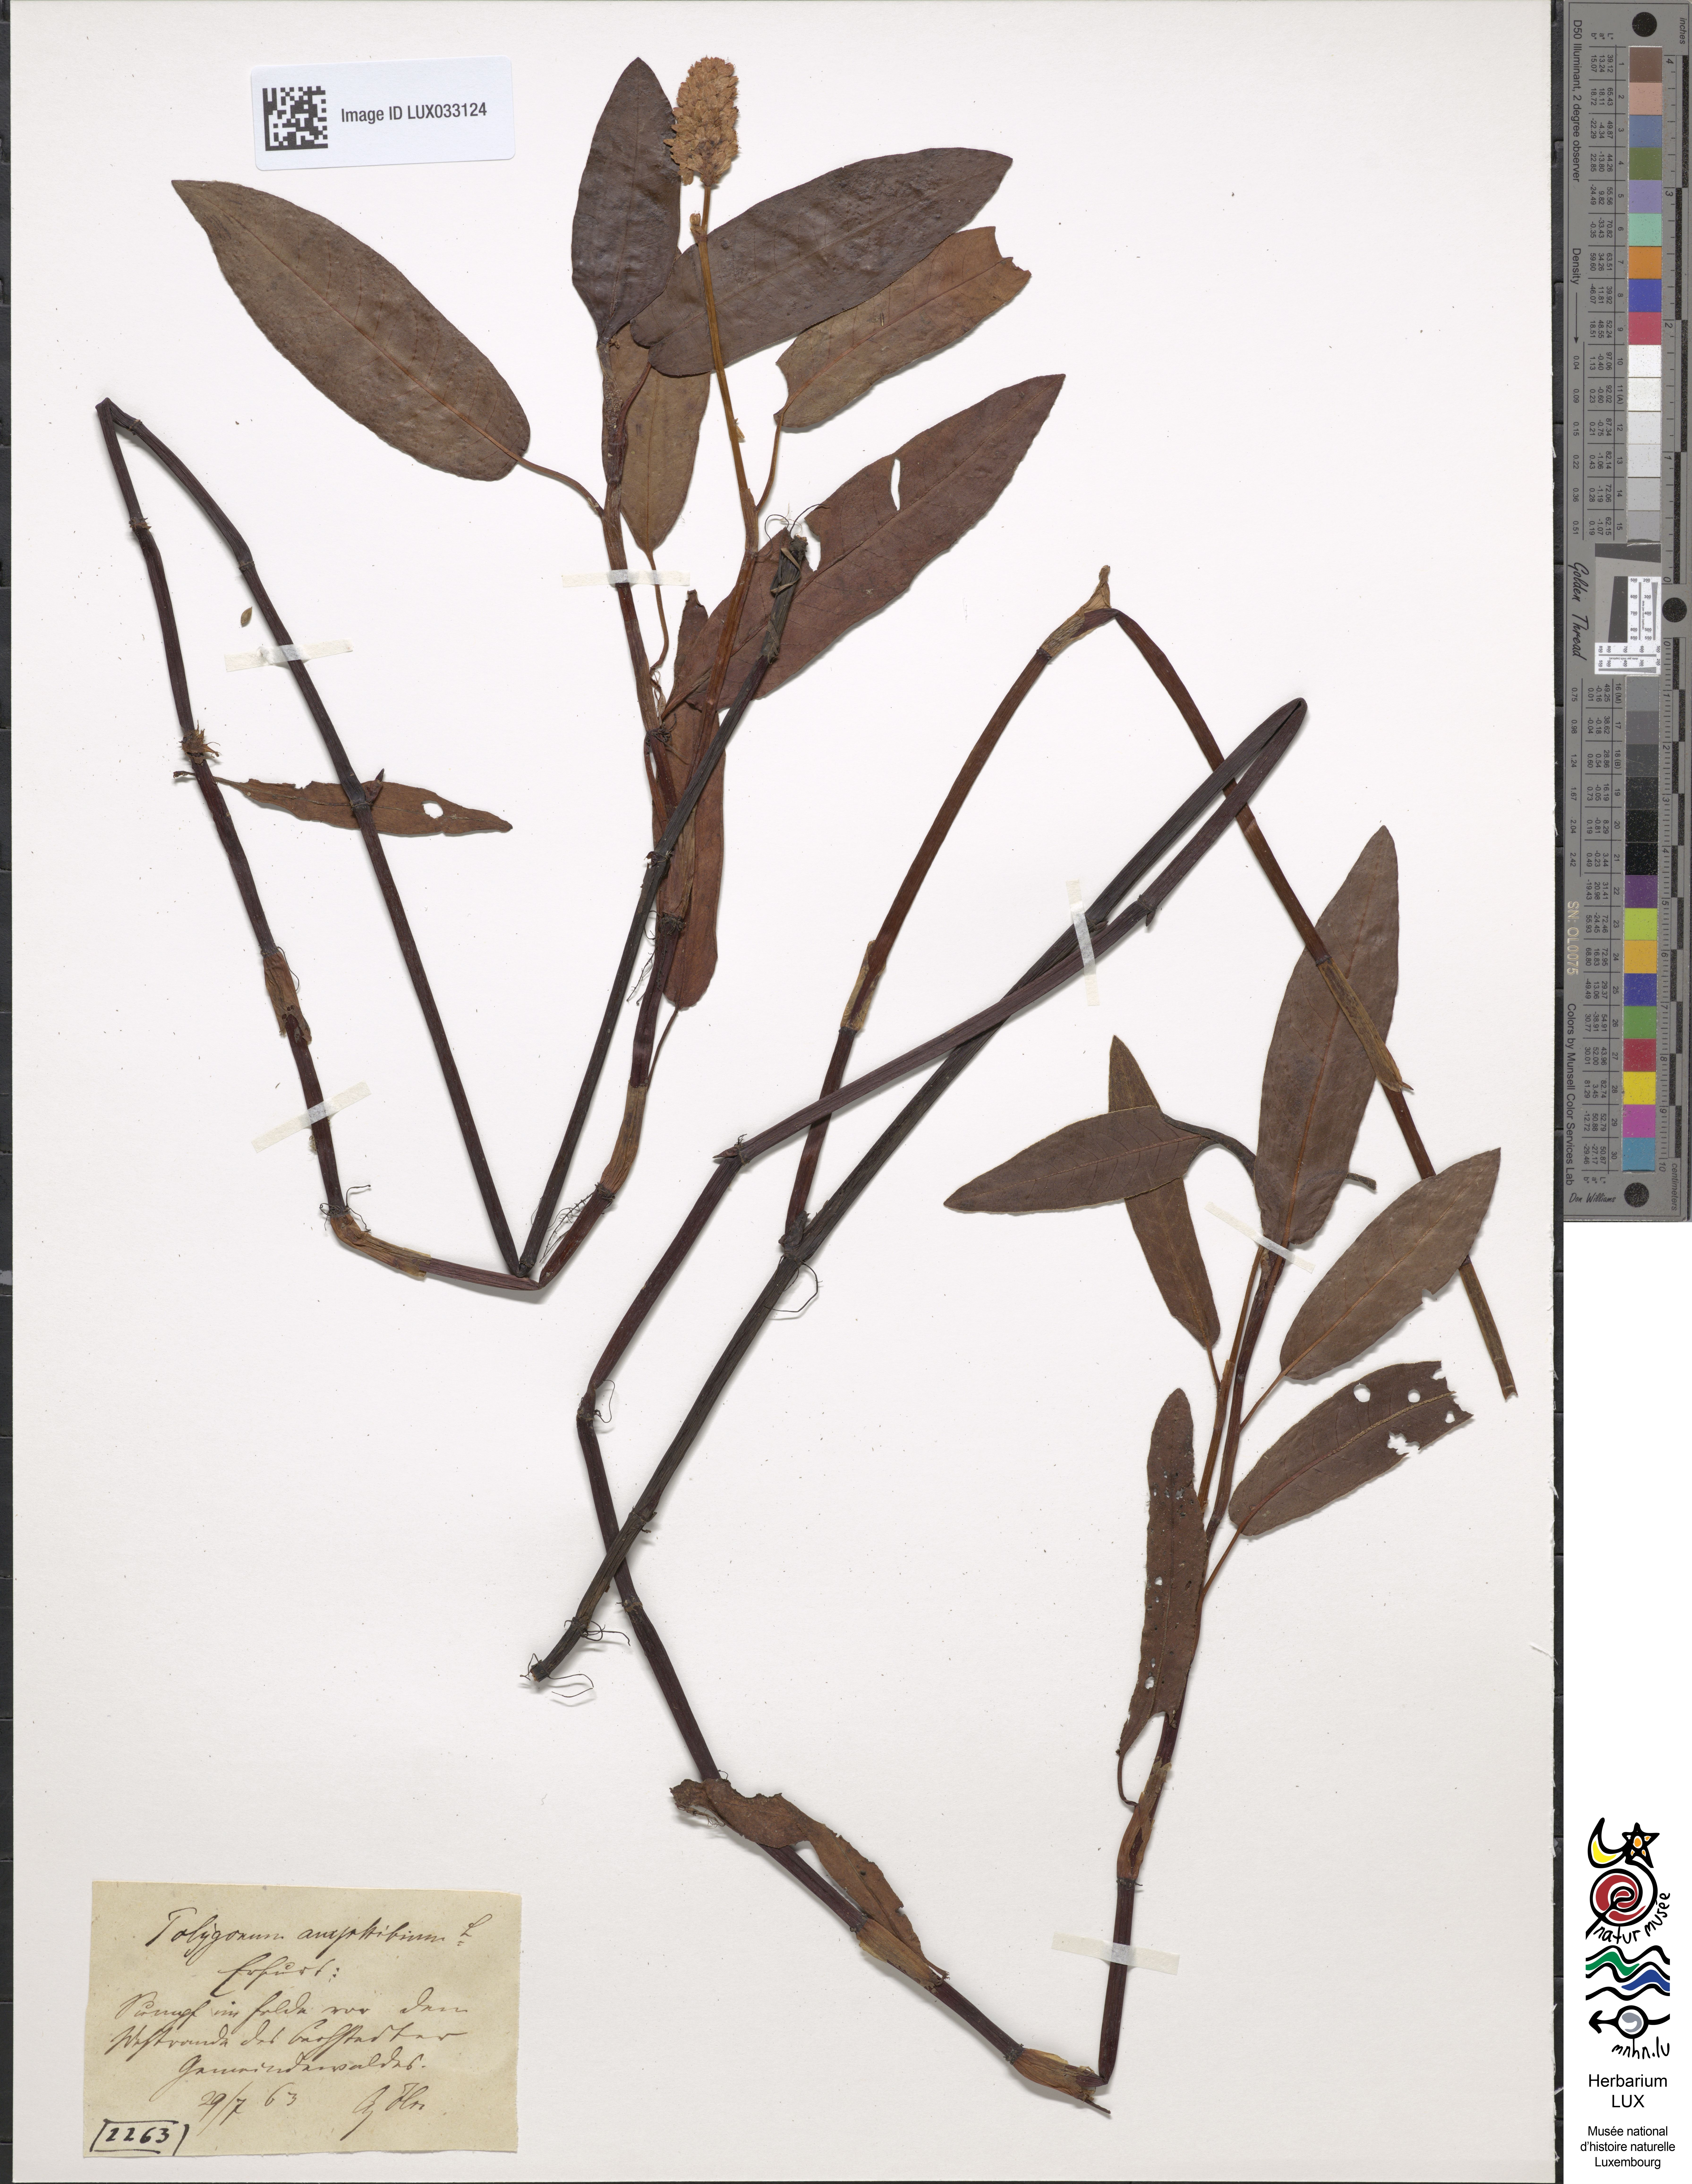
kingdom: Plantae
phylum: Tracheophyta
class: Magnoliopsida
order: Caryophyllales
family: Polygonaceae
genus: Persicaria
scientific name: Persicaria amphibia
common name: Amphibious bistort
